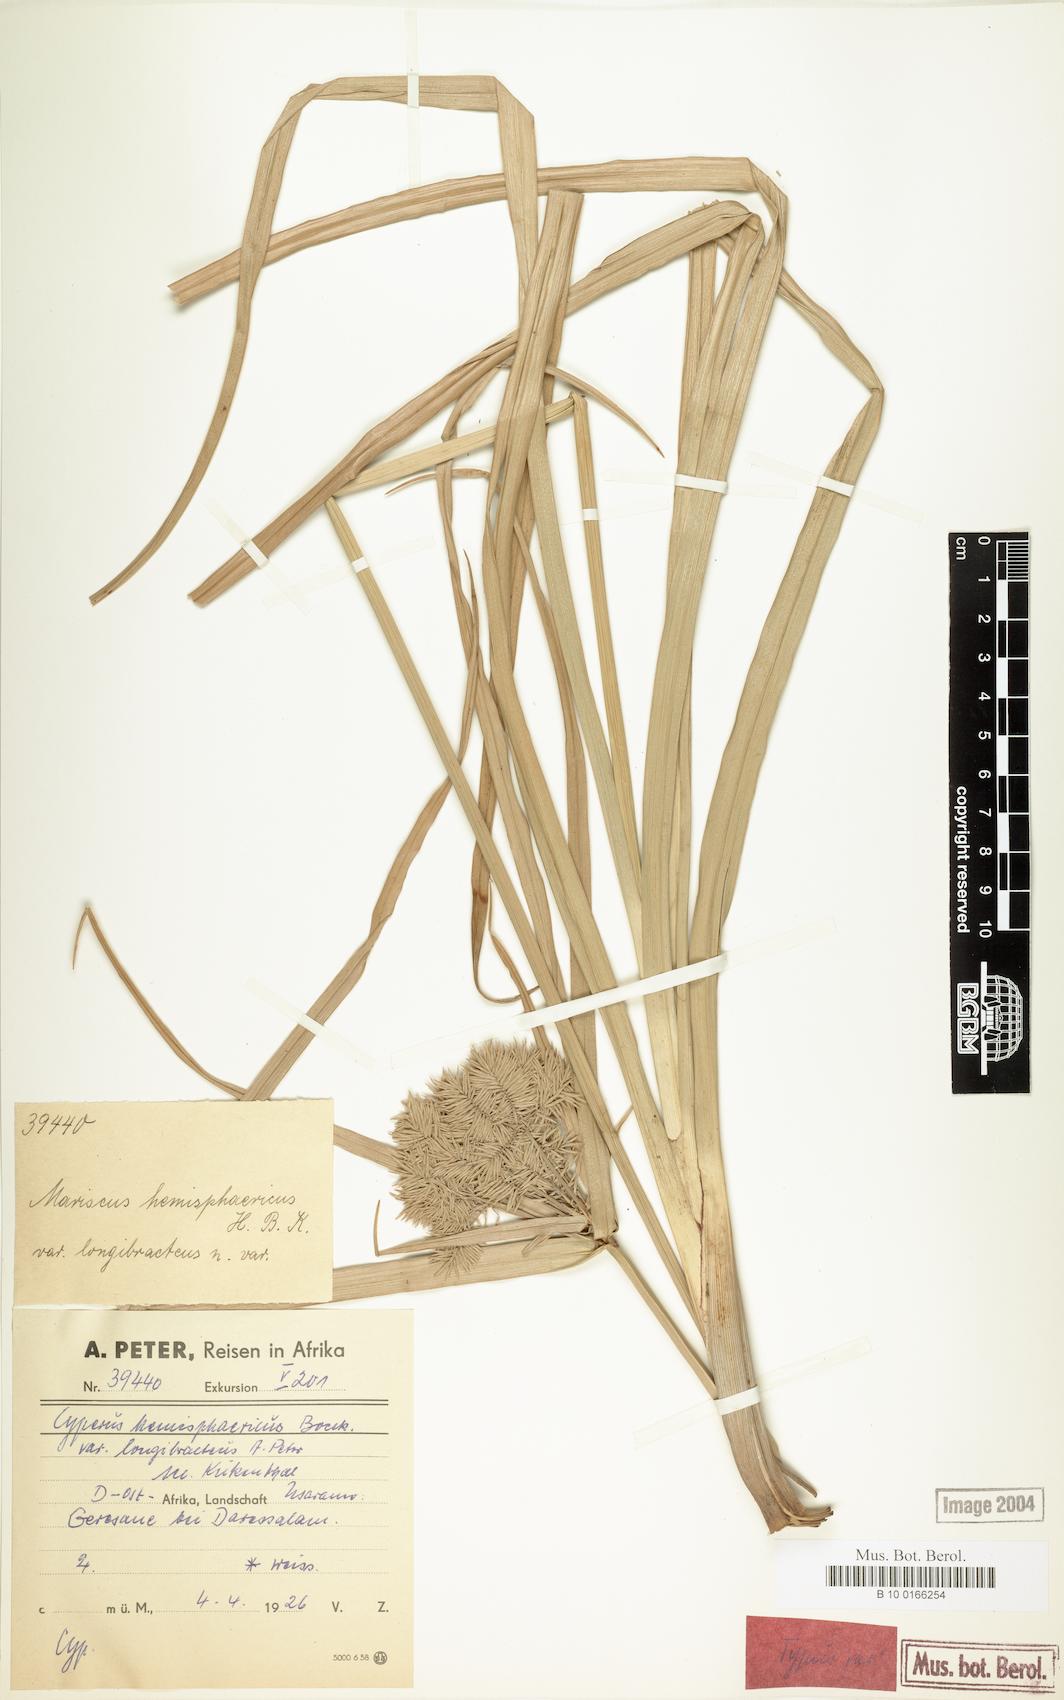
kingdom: Plantae
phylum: Tracheophyta
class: Liliopsida
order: Poales
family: Cyperaceae
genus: Cyperus
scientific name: Cyperus hemisphaericus
